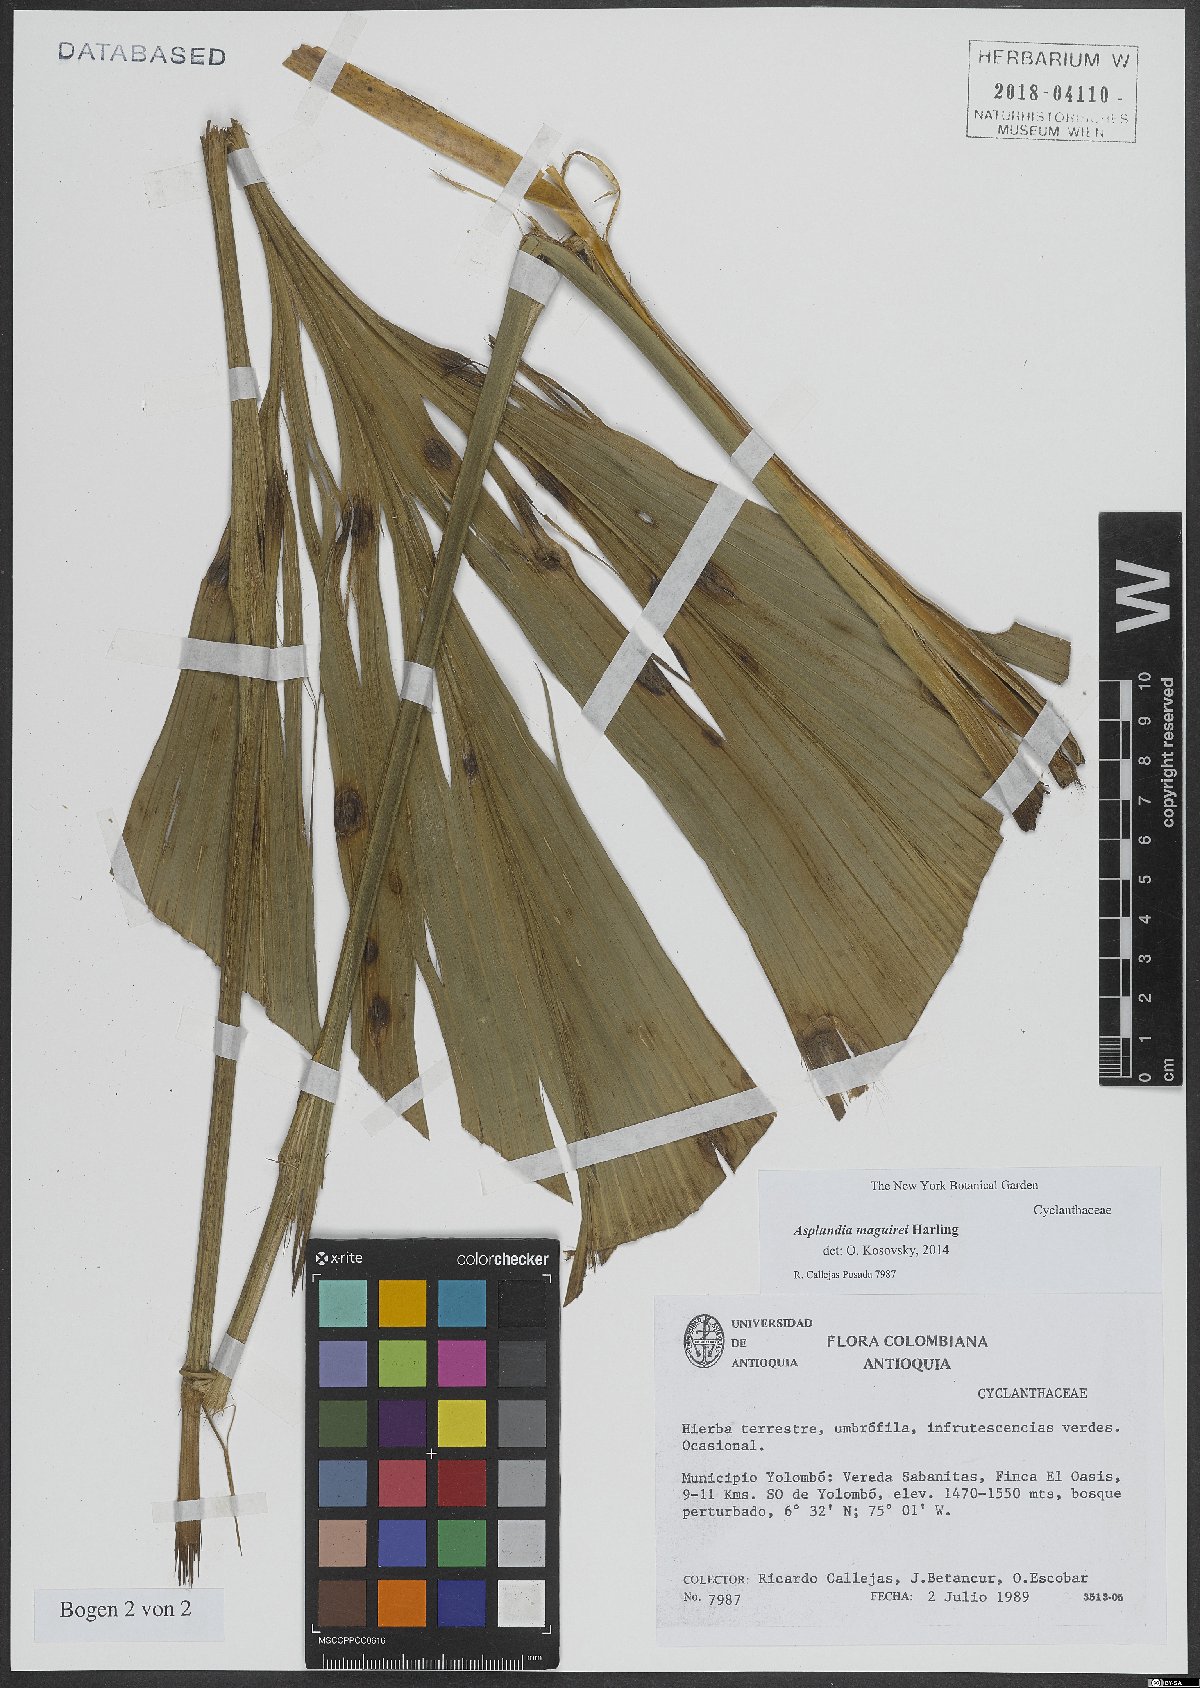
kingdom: Plantae
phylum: Tracheophyta
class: Liliopsida
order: Pandanales
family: Cyclanthaceae
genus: Asplundia
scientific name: Asplundia maguirei
